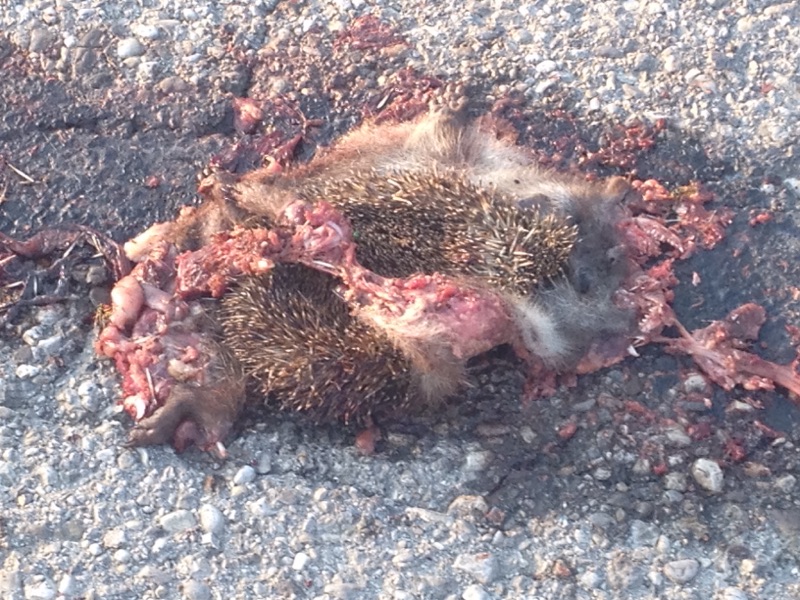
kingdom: Animalia
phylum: Chordata
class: Mammalia
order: Erinaceomorpha
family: Erinaceidae
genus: Erinaceus
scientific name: Erinaceus
